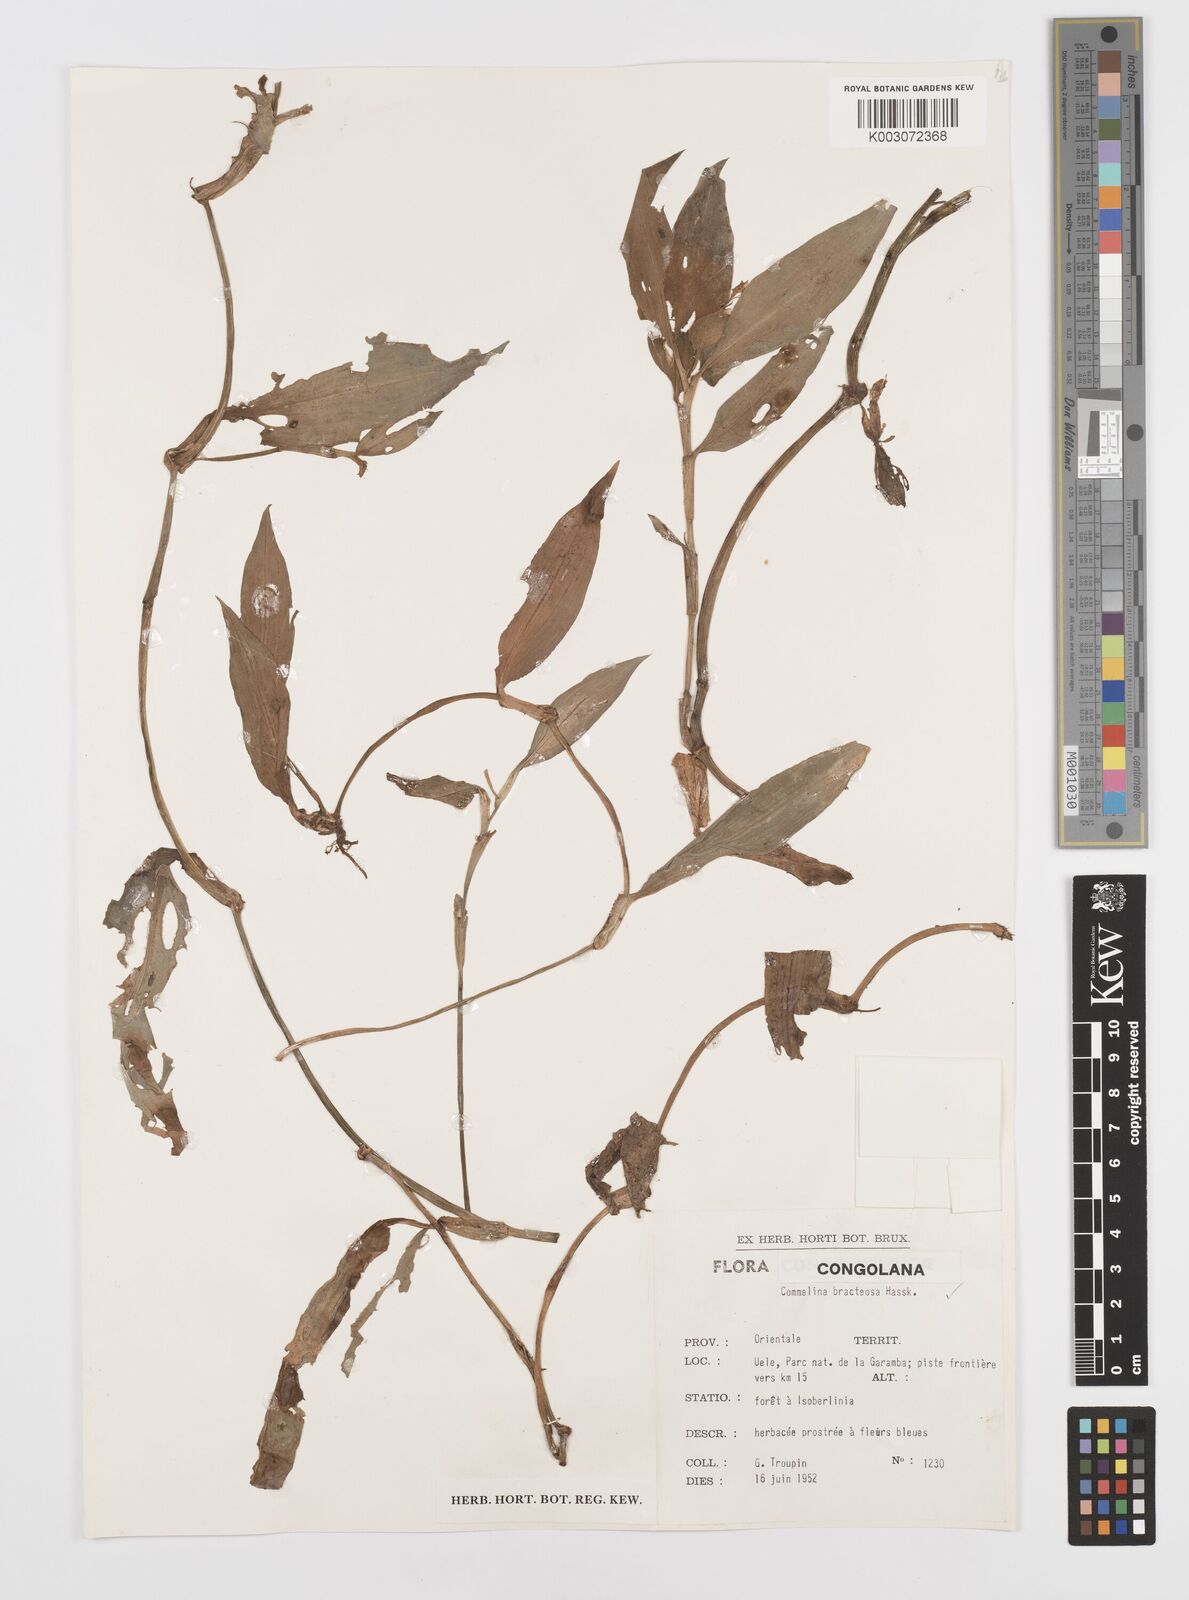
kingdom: Plantae
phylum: Tracheophyta
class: Liliopsida
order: Commelinales
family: Commelinaceae
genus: Commelina
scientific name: Commelina bracteosa
